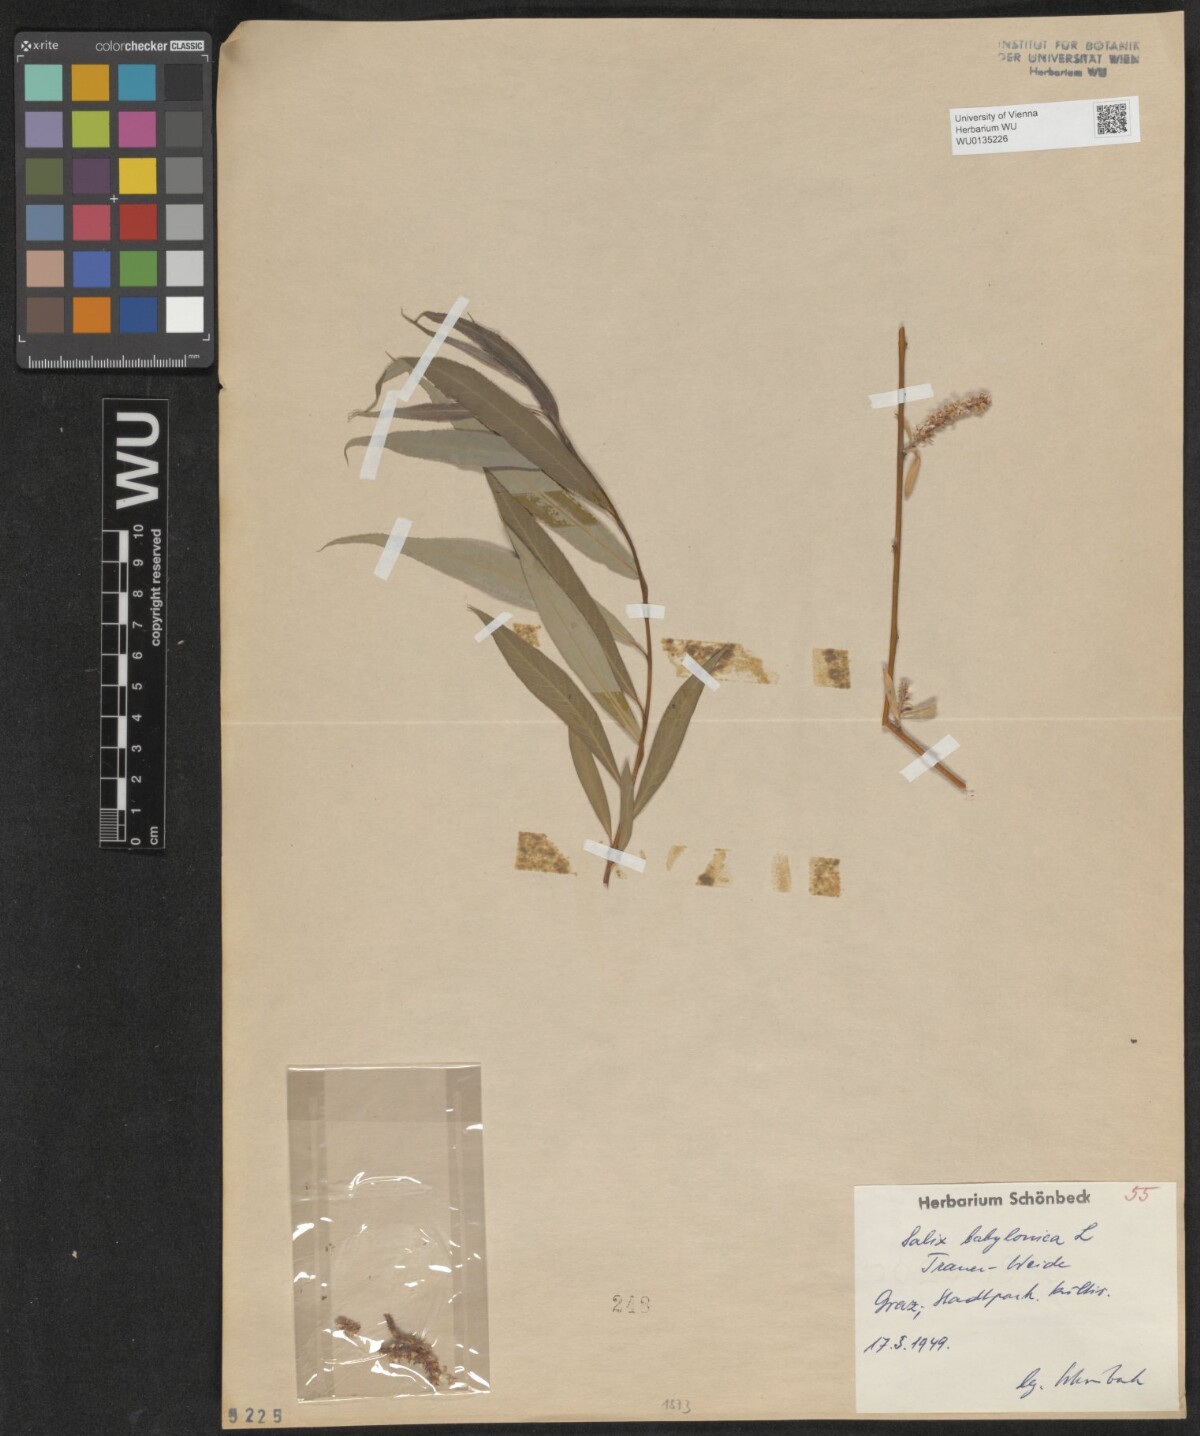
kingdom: Plantae
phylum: Tracheophyta
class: Magnoliopsida
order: Malpighiales
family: Salicaceae
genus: Salix
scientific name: Salix babylonica
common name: Weeping willow
